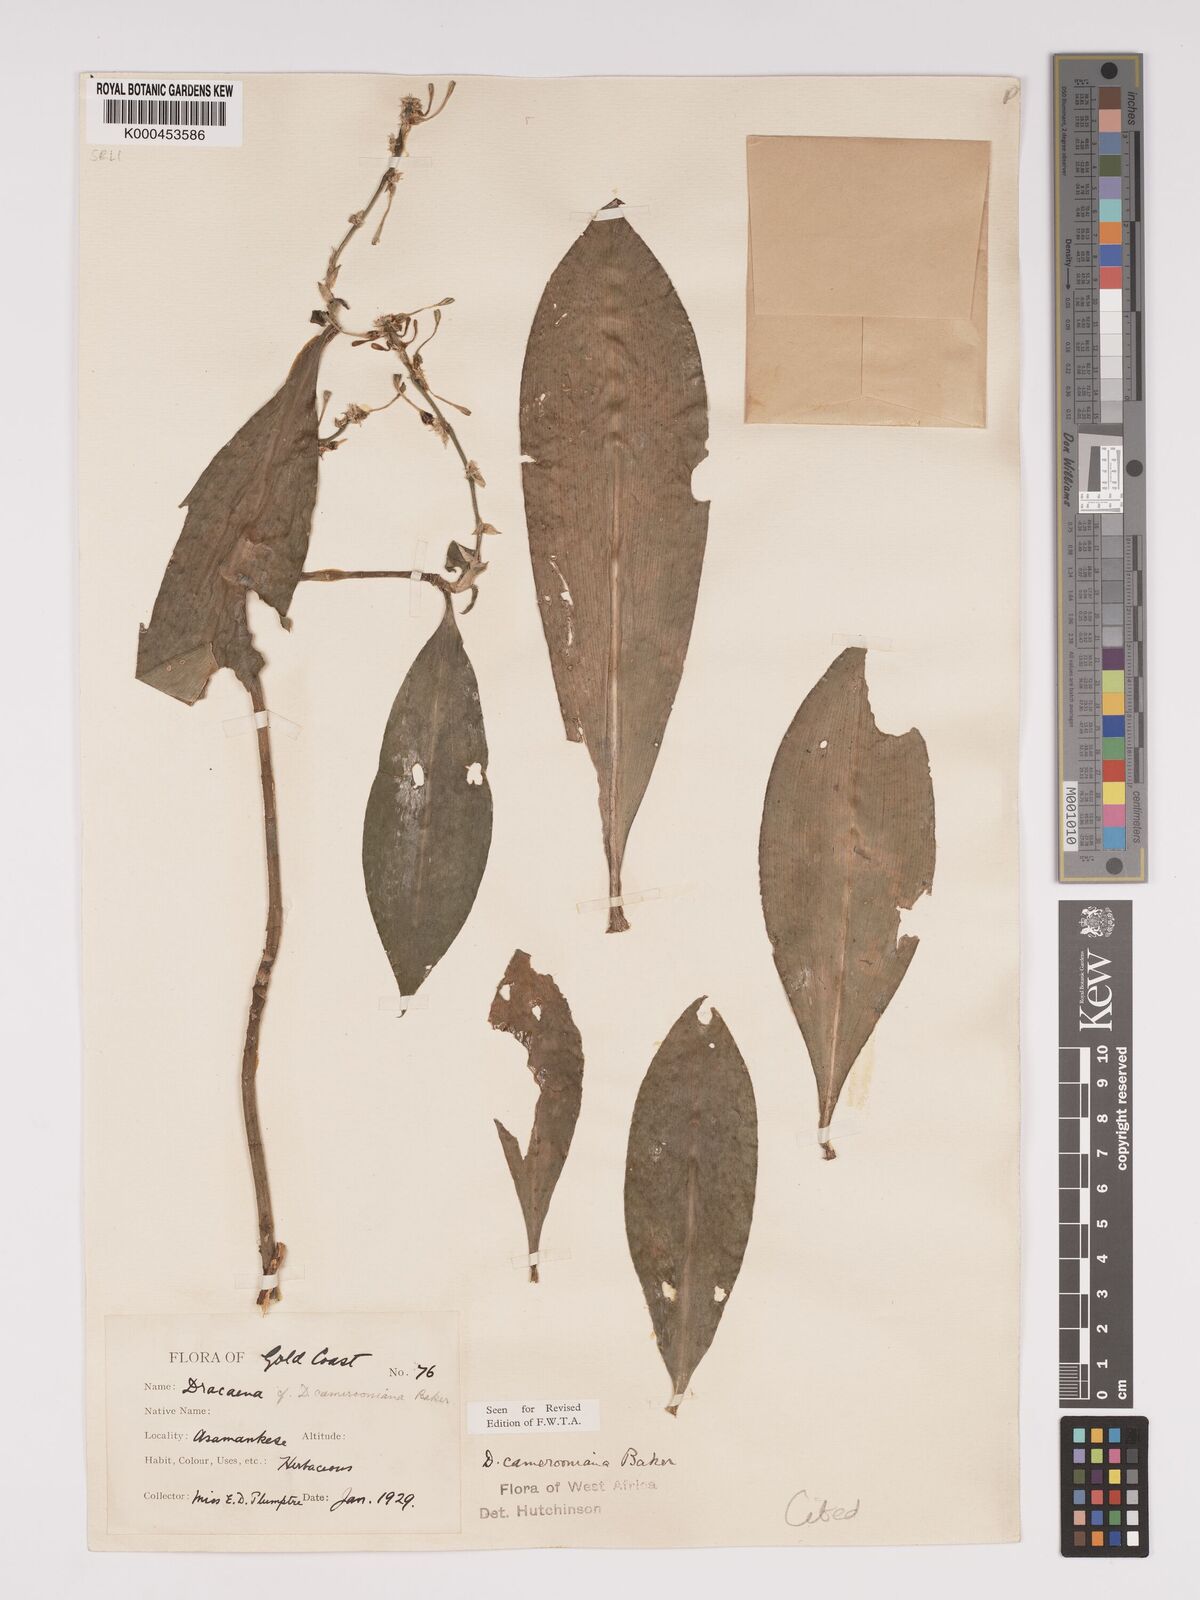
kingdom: Plantae
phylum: Tracheophyta
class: Liliopsida
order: Asparagales
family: Asparagaceae
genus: Dracaena
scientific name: Dracaena camerooniana
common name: Dragon tree
